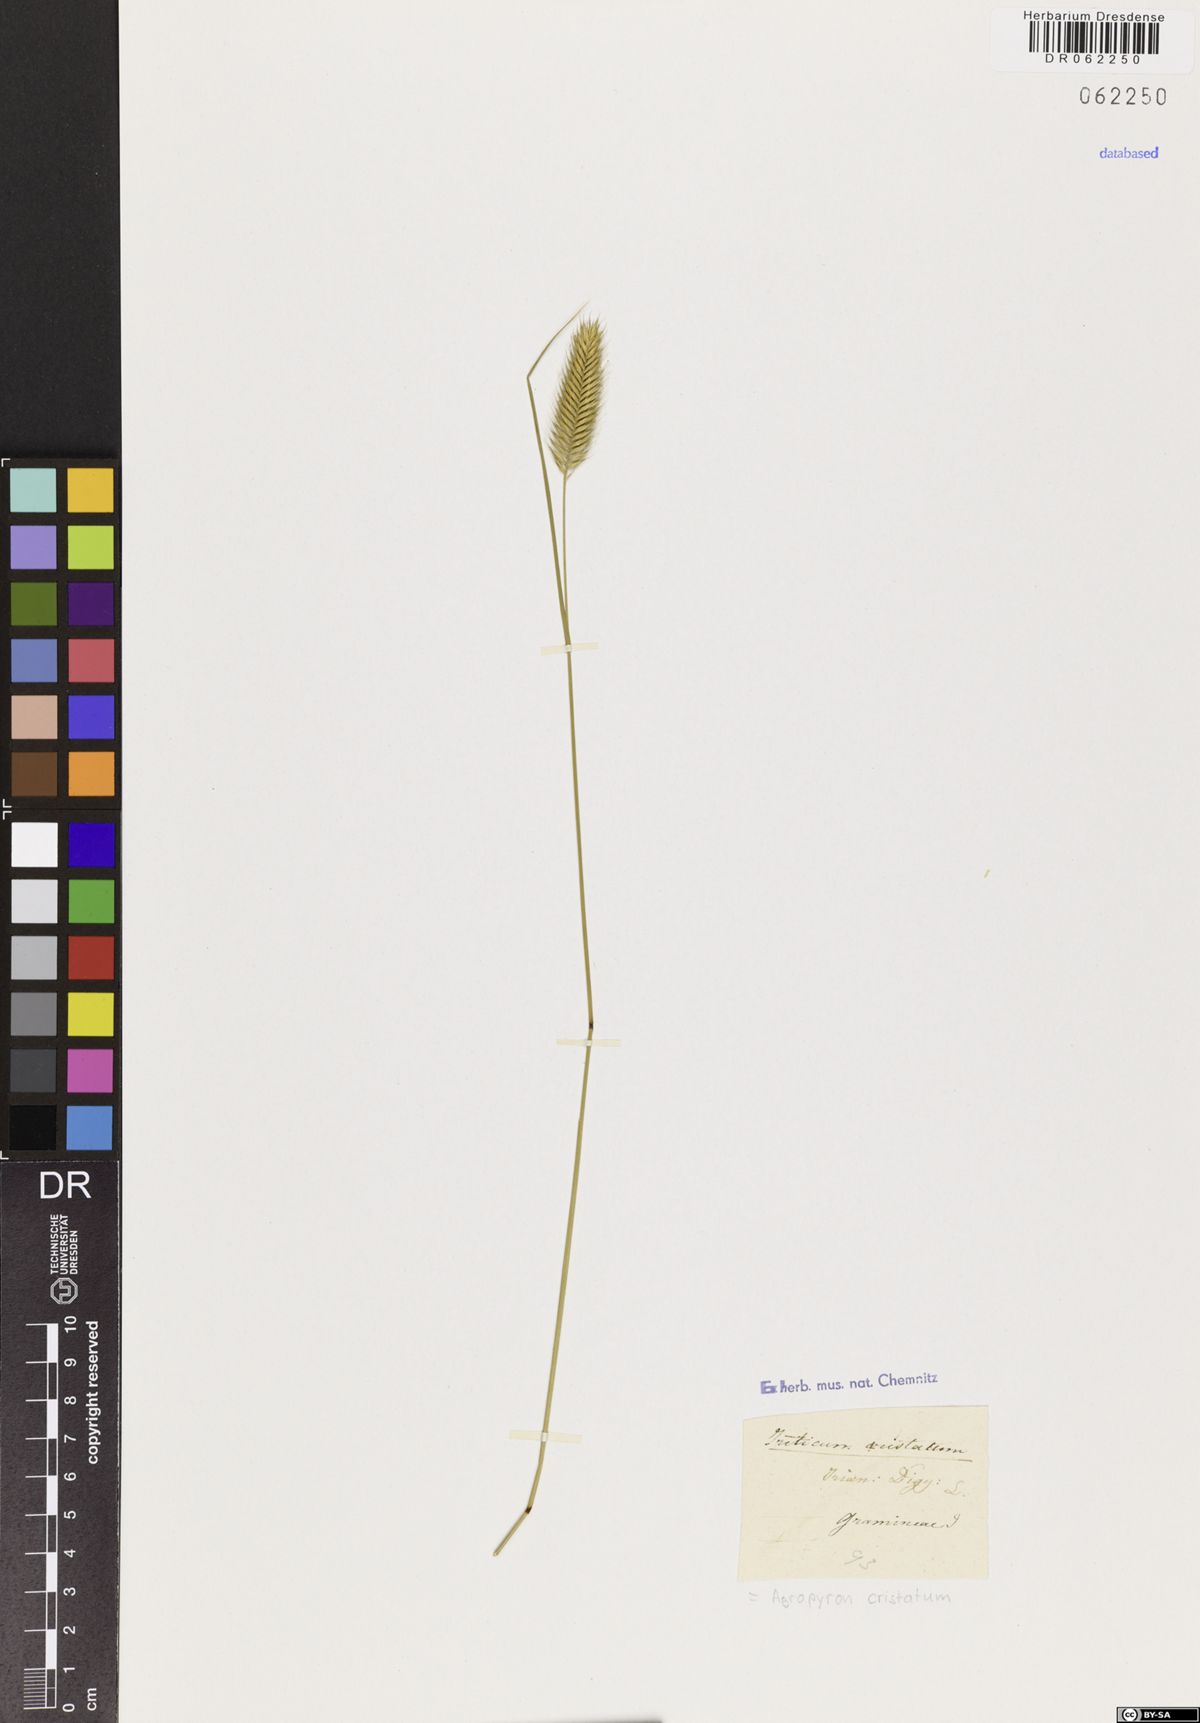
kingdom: Plantae
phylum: Tracheophyta
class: Liliopsida
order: Poales
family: Poaceae
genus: Agropyron
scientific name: Agropyron cristatum
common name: Crested wheatgrass
